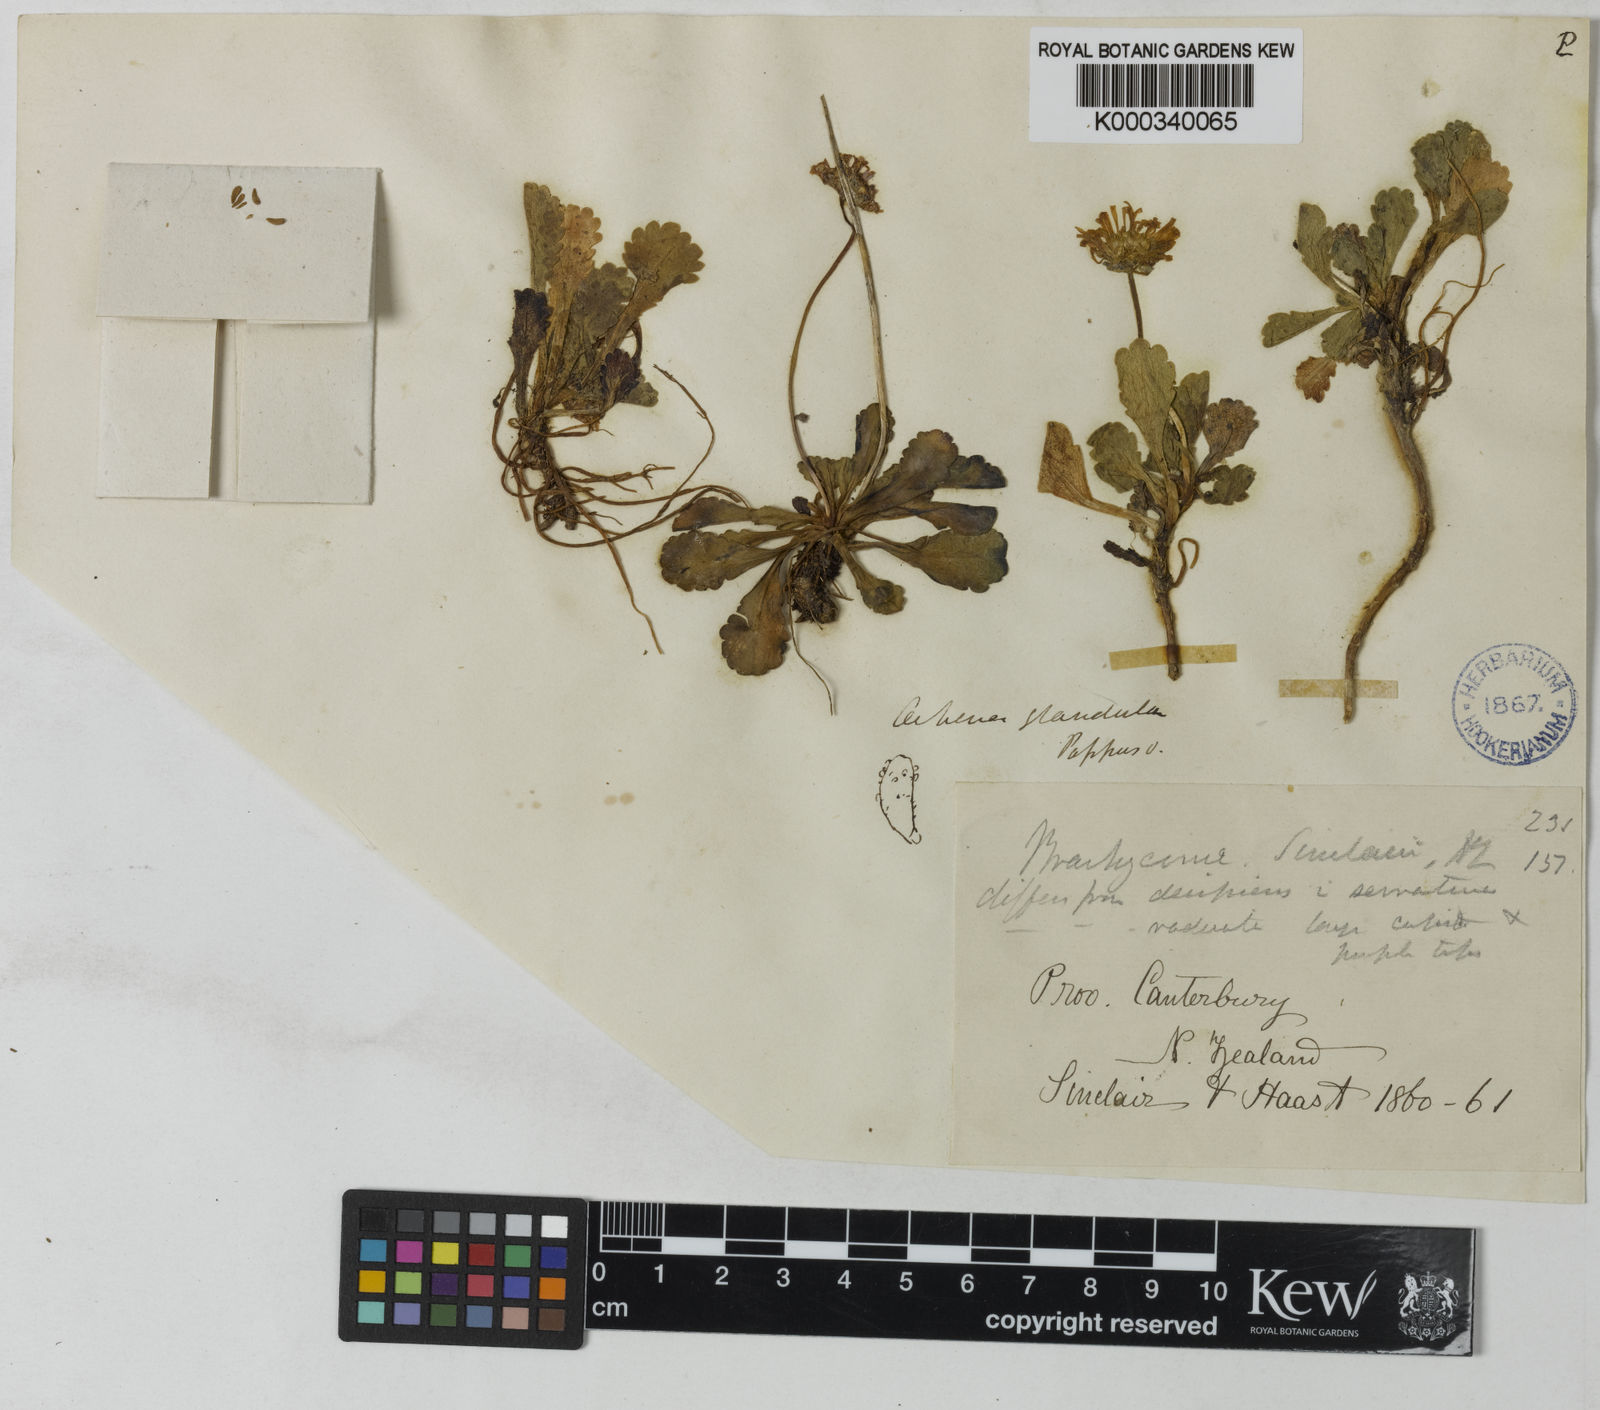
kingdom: Plantae
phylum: Tracheophyta
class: Magnoliopsida
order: Asterales
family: Asteraceae
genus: Brachyscome
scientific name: Brachyscome sinclairii
